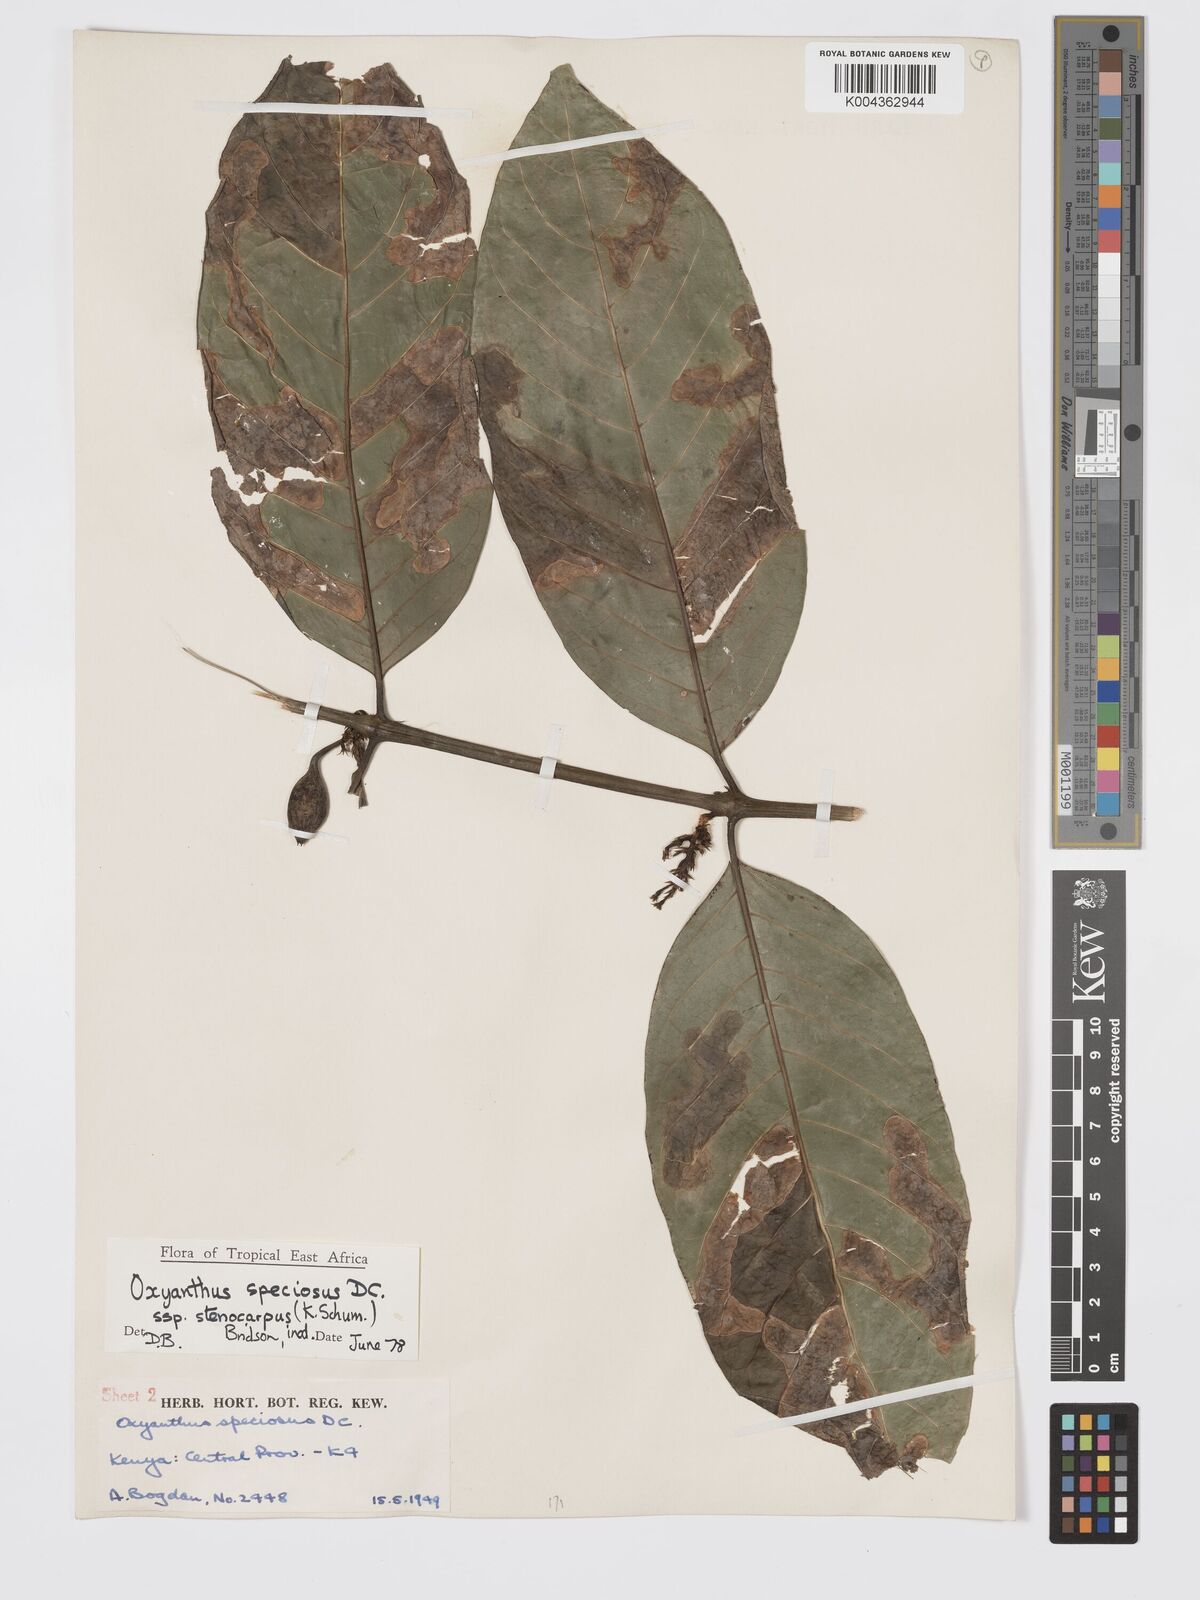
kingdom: Plantae
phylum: Tracheophyta
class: Magnoliopsida
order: Gentianales
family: Rubiaceae
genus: Oxyanthus
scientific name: Oxyanthus speciosus
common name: Whipstick loquat
